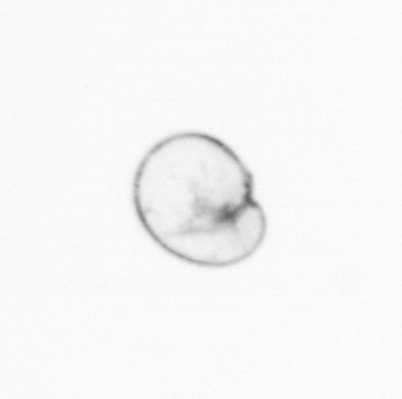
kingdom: Chromista
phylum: Myzozoa
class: Dinophyceae
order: Noctilucales
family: Noctilucaceae
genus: Noctiluca
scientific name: Noctiluca scintillans
